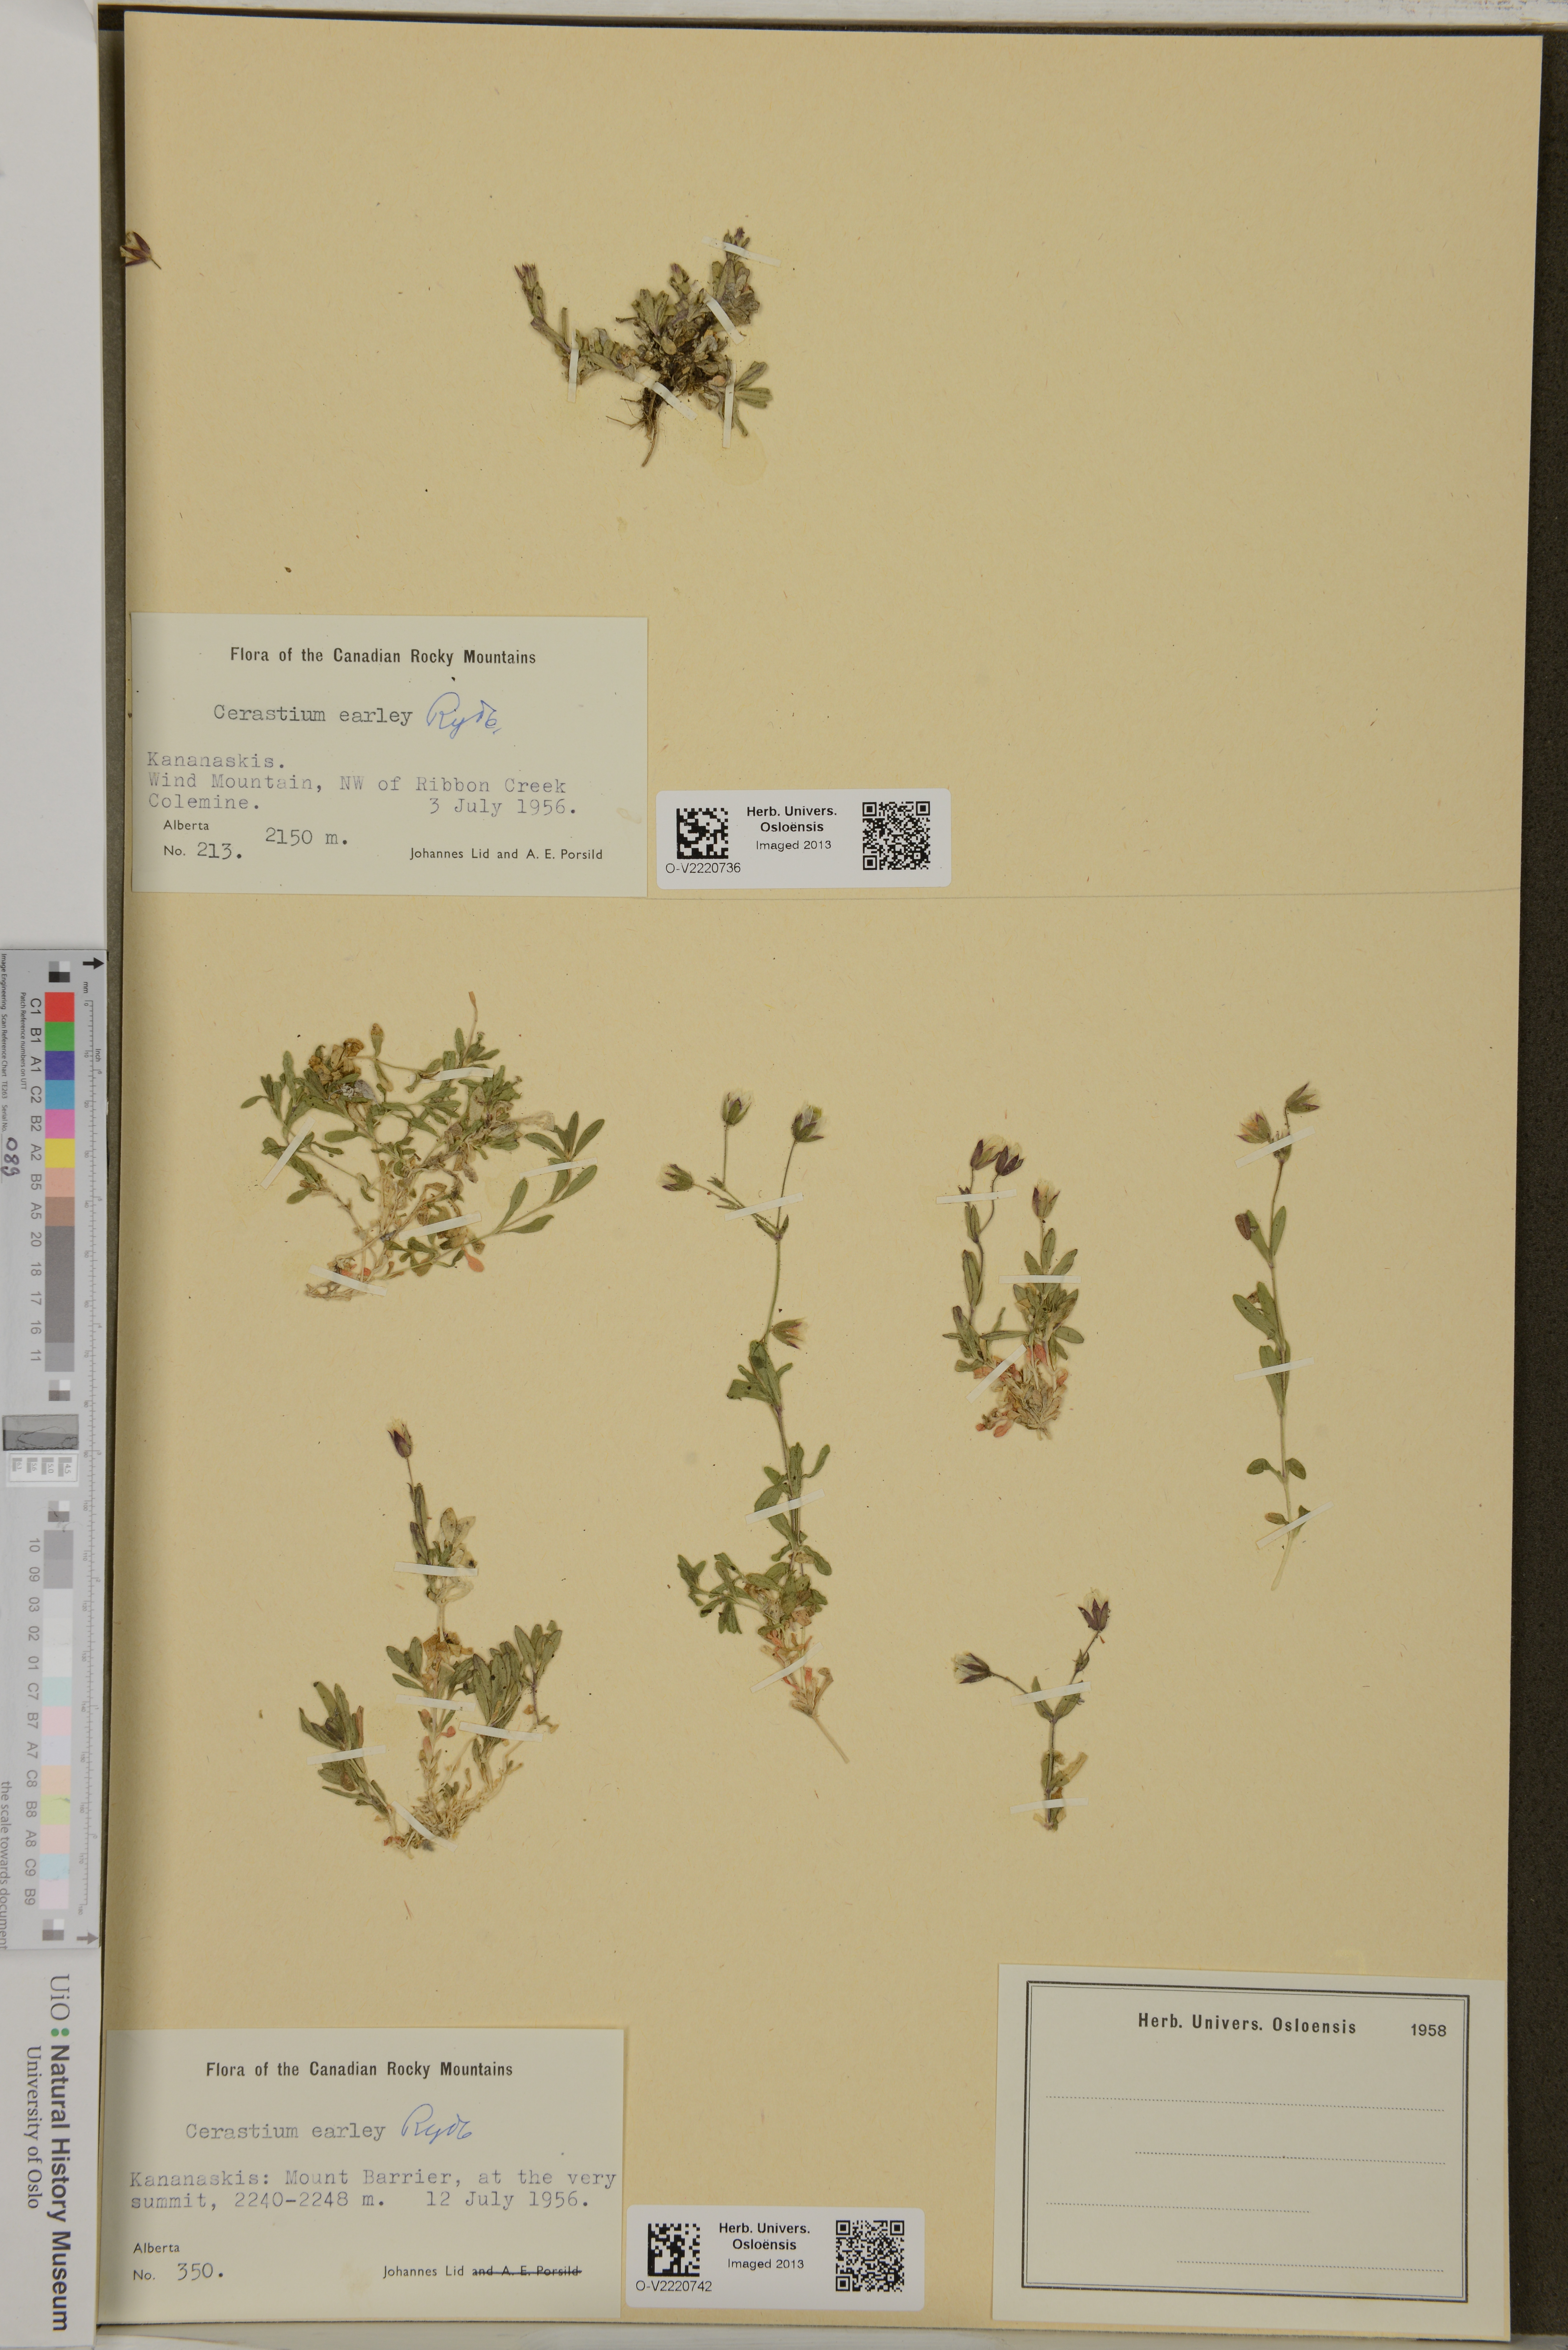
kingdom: Plantae
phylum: Tracheophyta
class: Magnoliopsida
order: Caryophyllales
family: Caryophyllaceae
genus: Cerastium
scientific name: Cerastium beeringianum
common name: Bering mouse-ear chickweed
